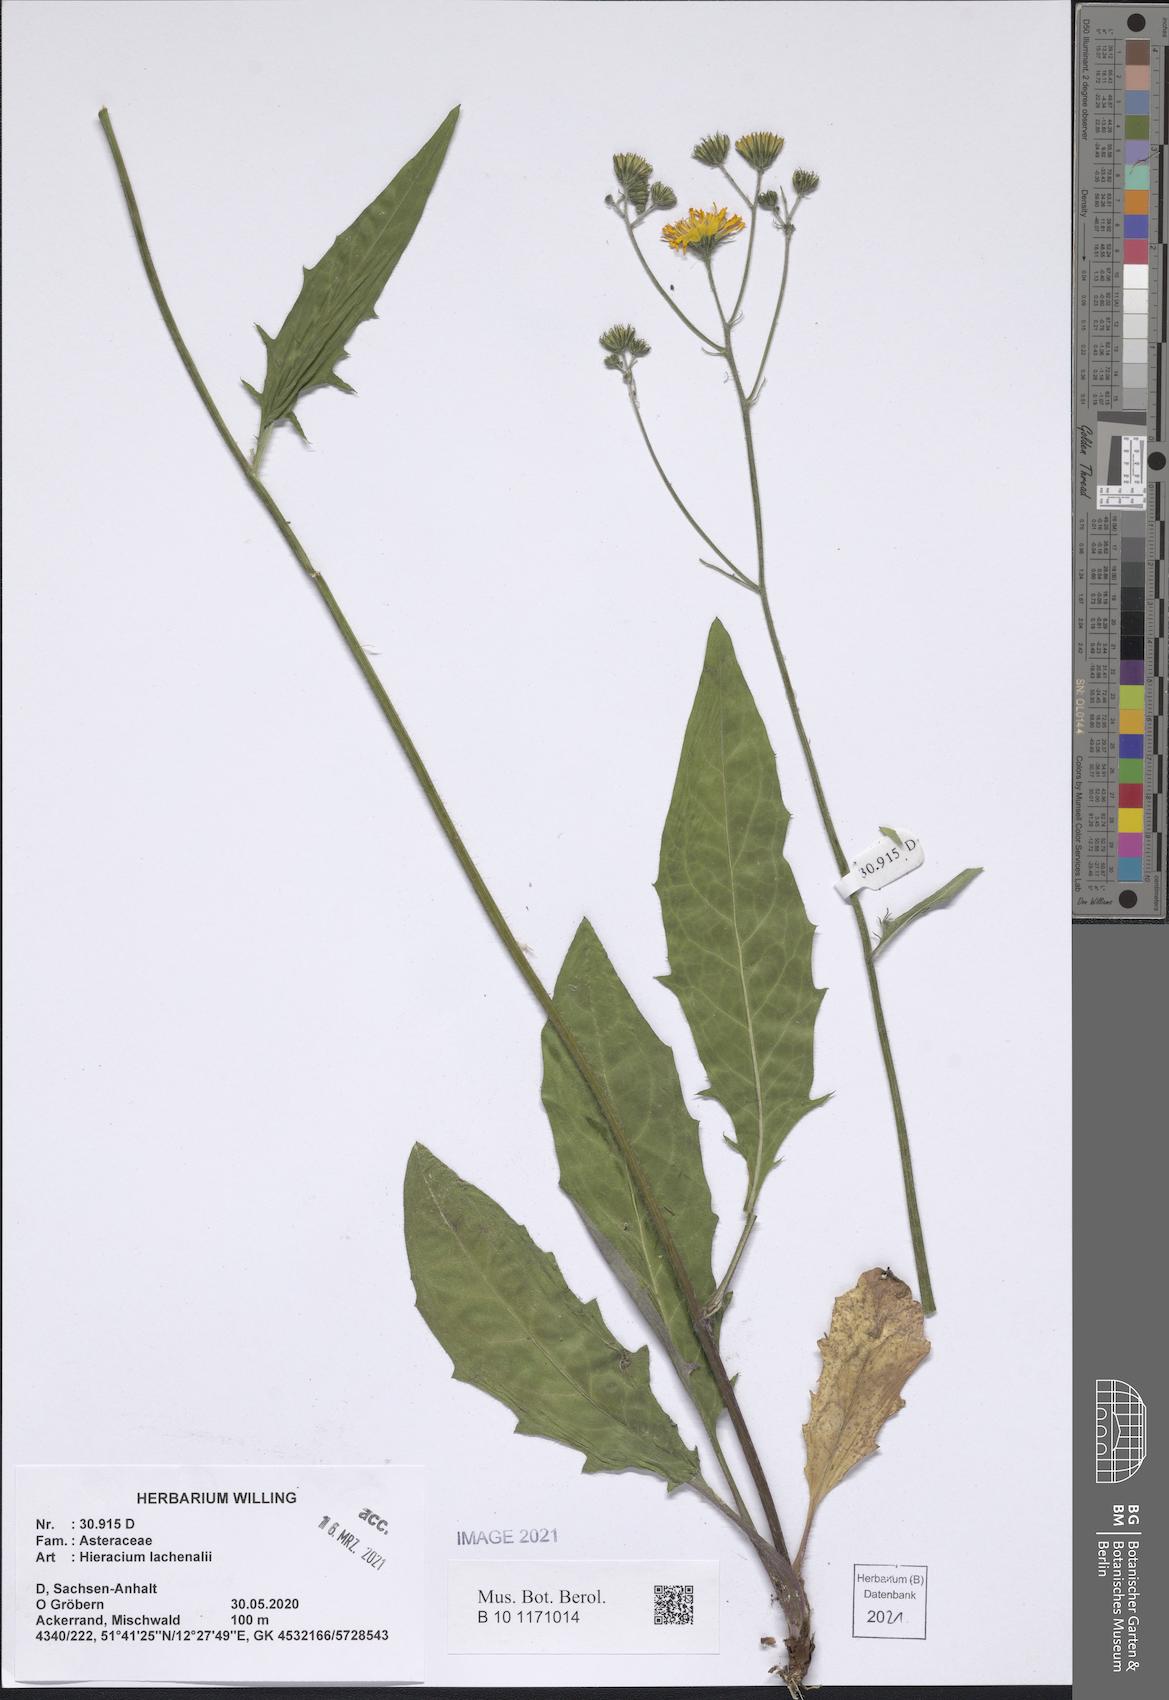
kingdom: Plantae
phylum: Tracheophyta
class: Magnoliopsida
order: Asterales
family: Asteraceae
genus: Hieracium
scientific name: Hieracium lachenalii
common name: Common hawkweed
